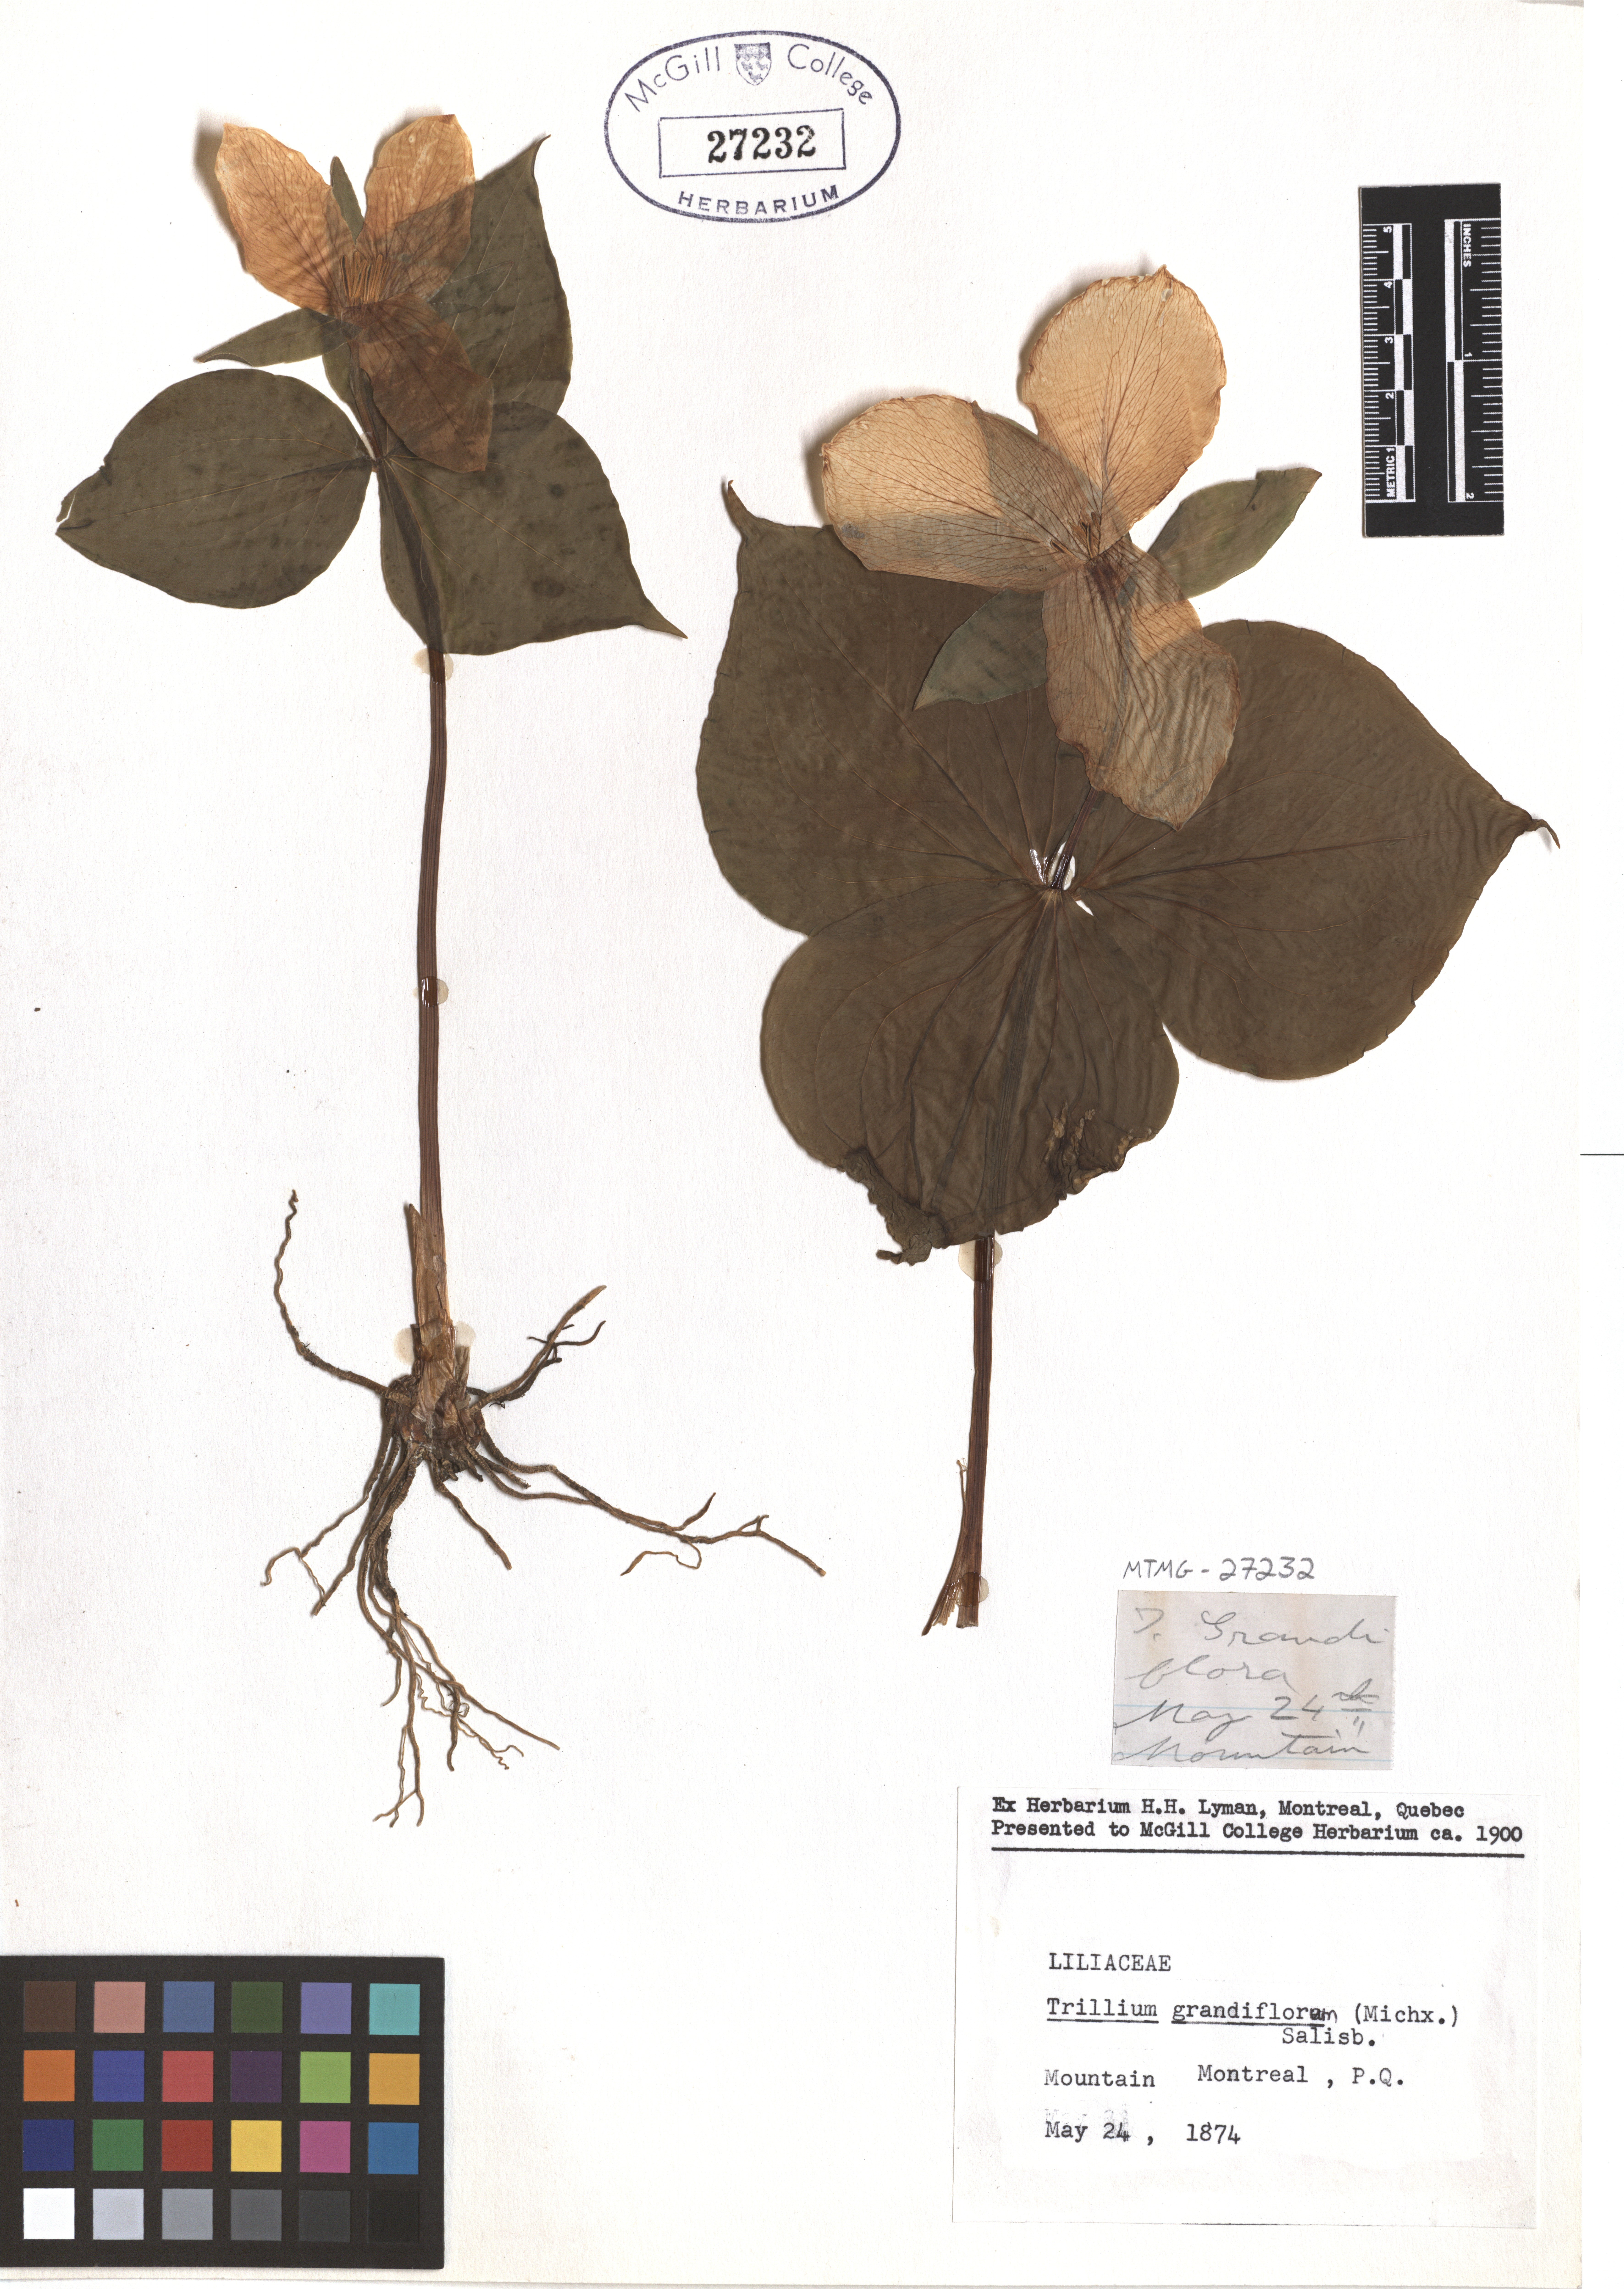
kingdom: Plantae
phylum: Tracheophyta
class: Liliopsida
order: Liliales
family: Melanthiaceae
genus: Trillium
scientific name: Trillium grandiflorum
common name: Great white trillium
